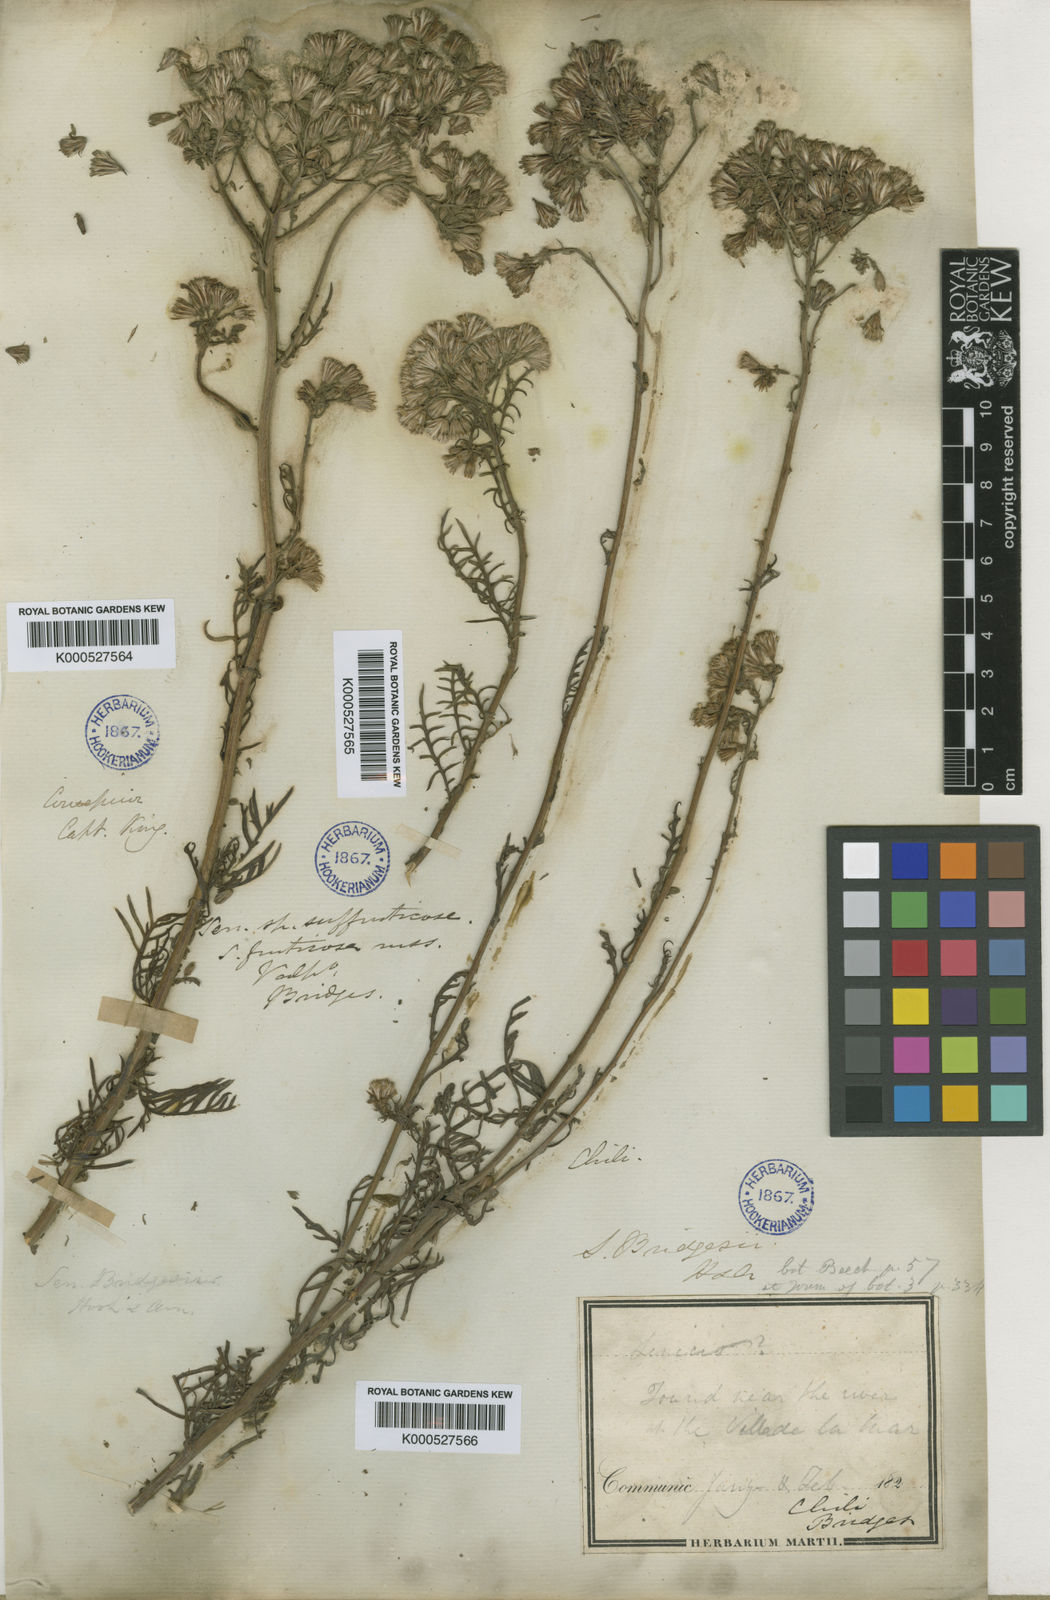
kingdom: Plantae
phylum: Tracheophyta
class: Magnoliopsida
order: Asterales
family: Asteraceae
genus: Senecio
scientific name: Senecio bridgesii
